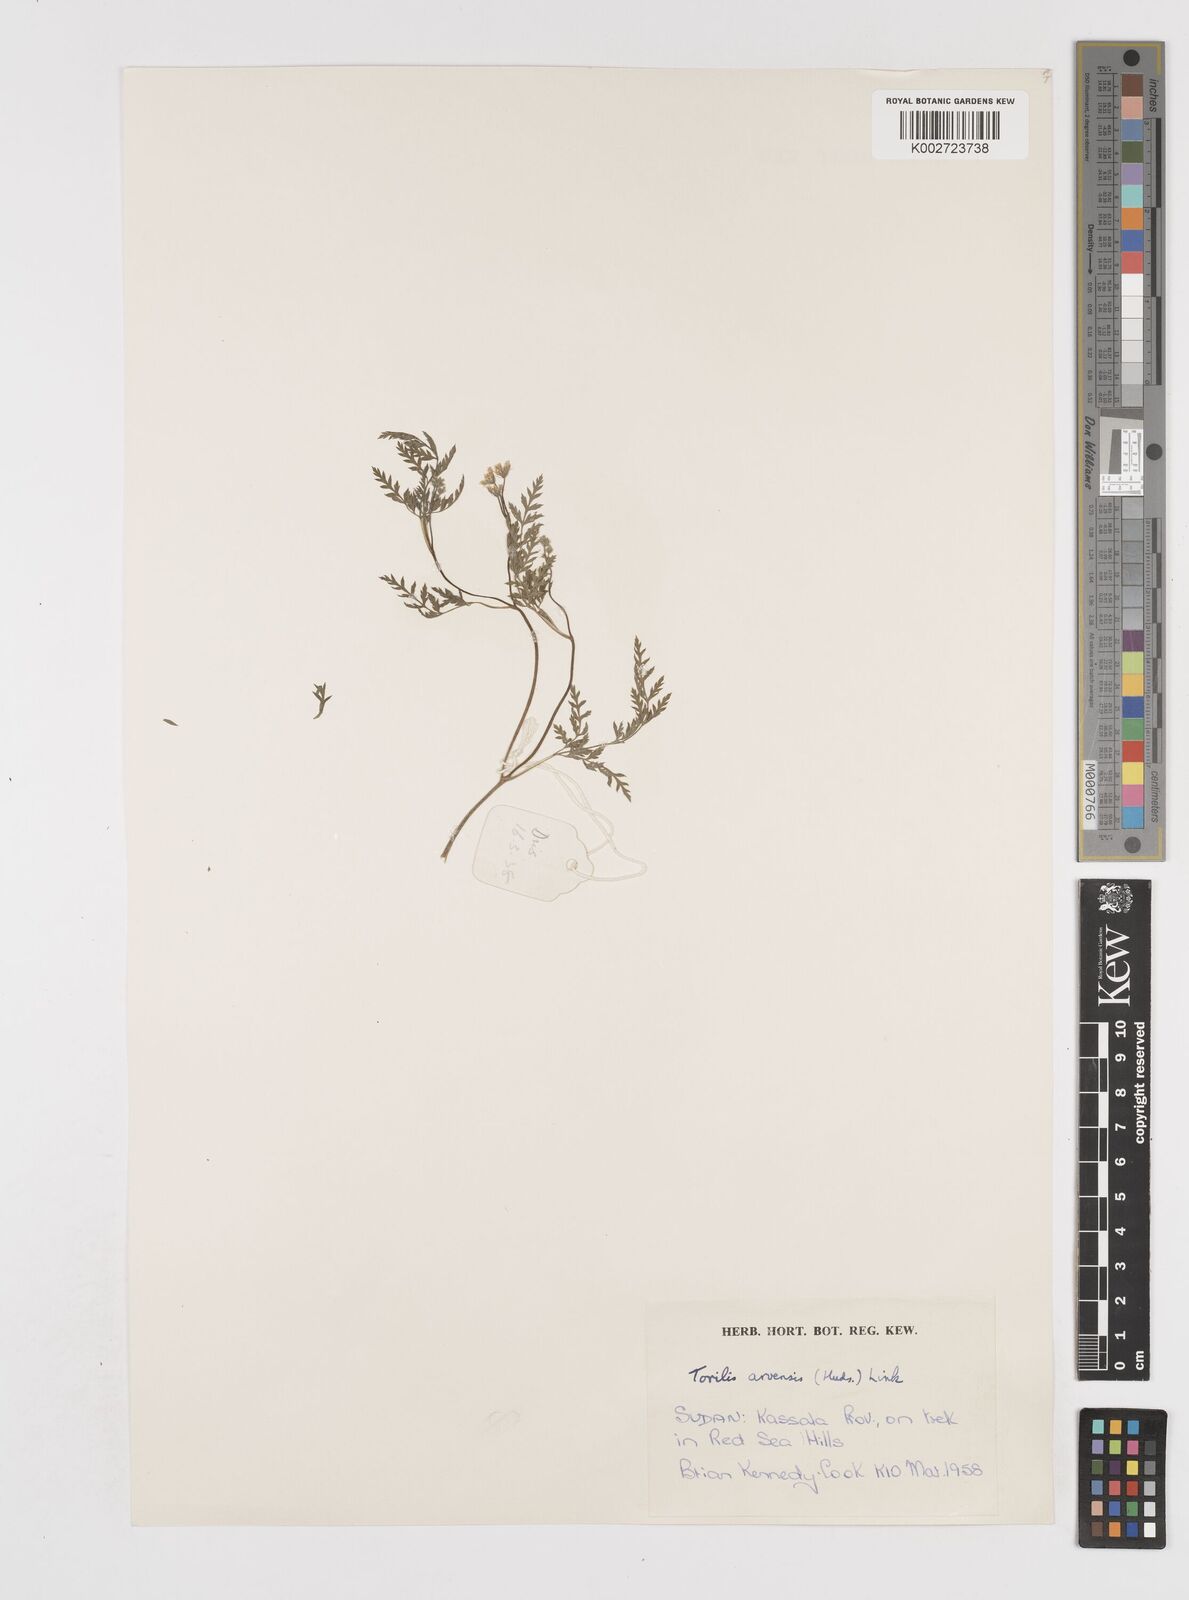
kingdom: Plantae
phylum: Tracheophyta
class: Magnoliopsida
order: Apiales
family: Apiaceae
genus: Torilis
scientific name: Torilis arvensis
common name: Spreading hedge-parsley
